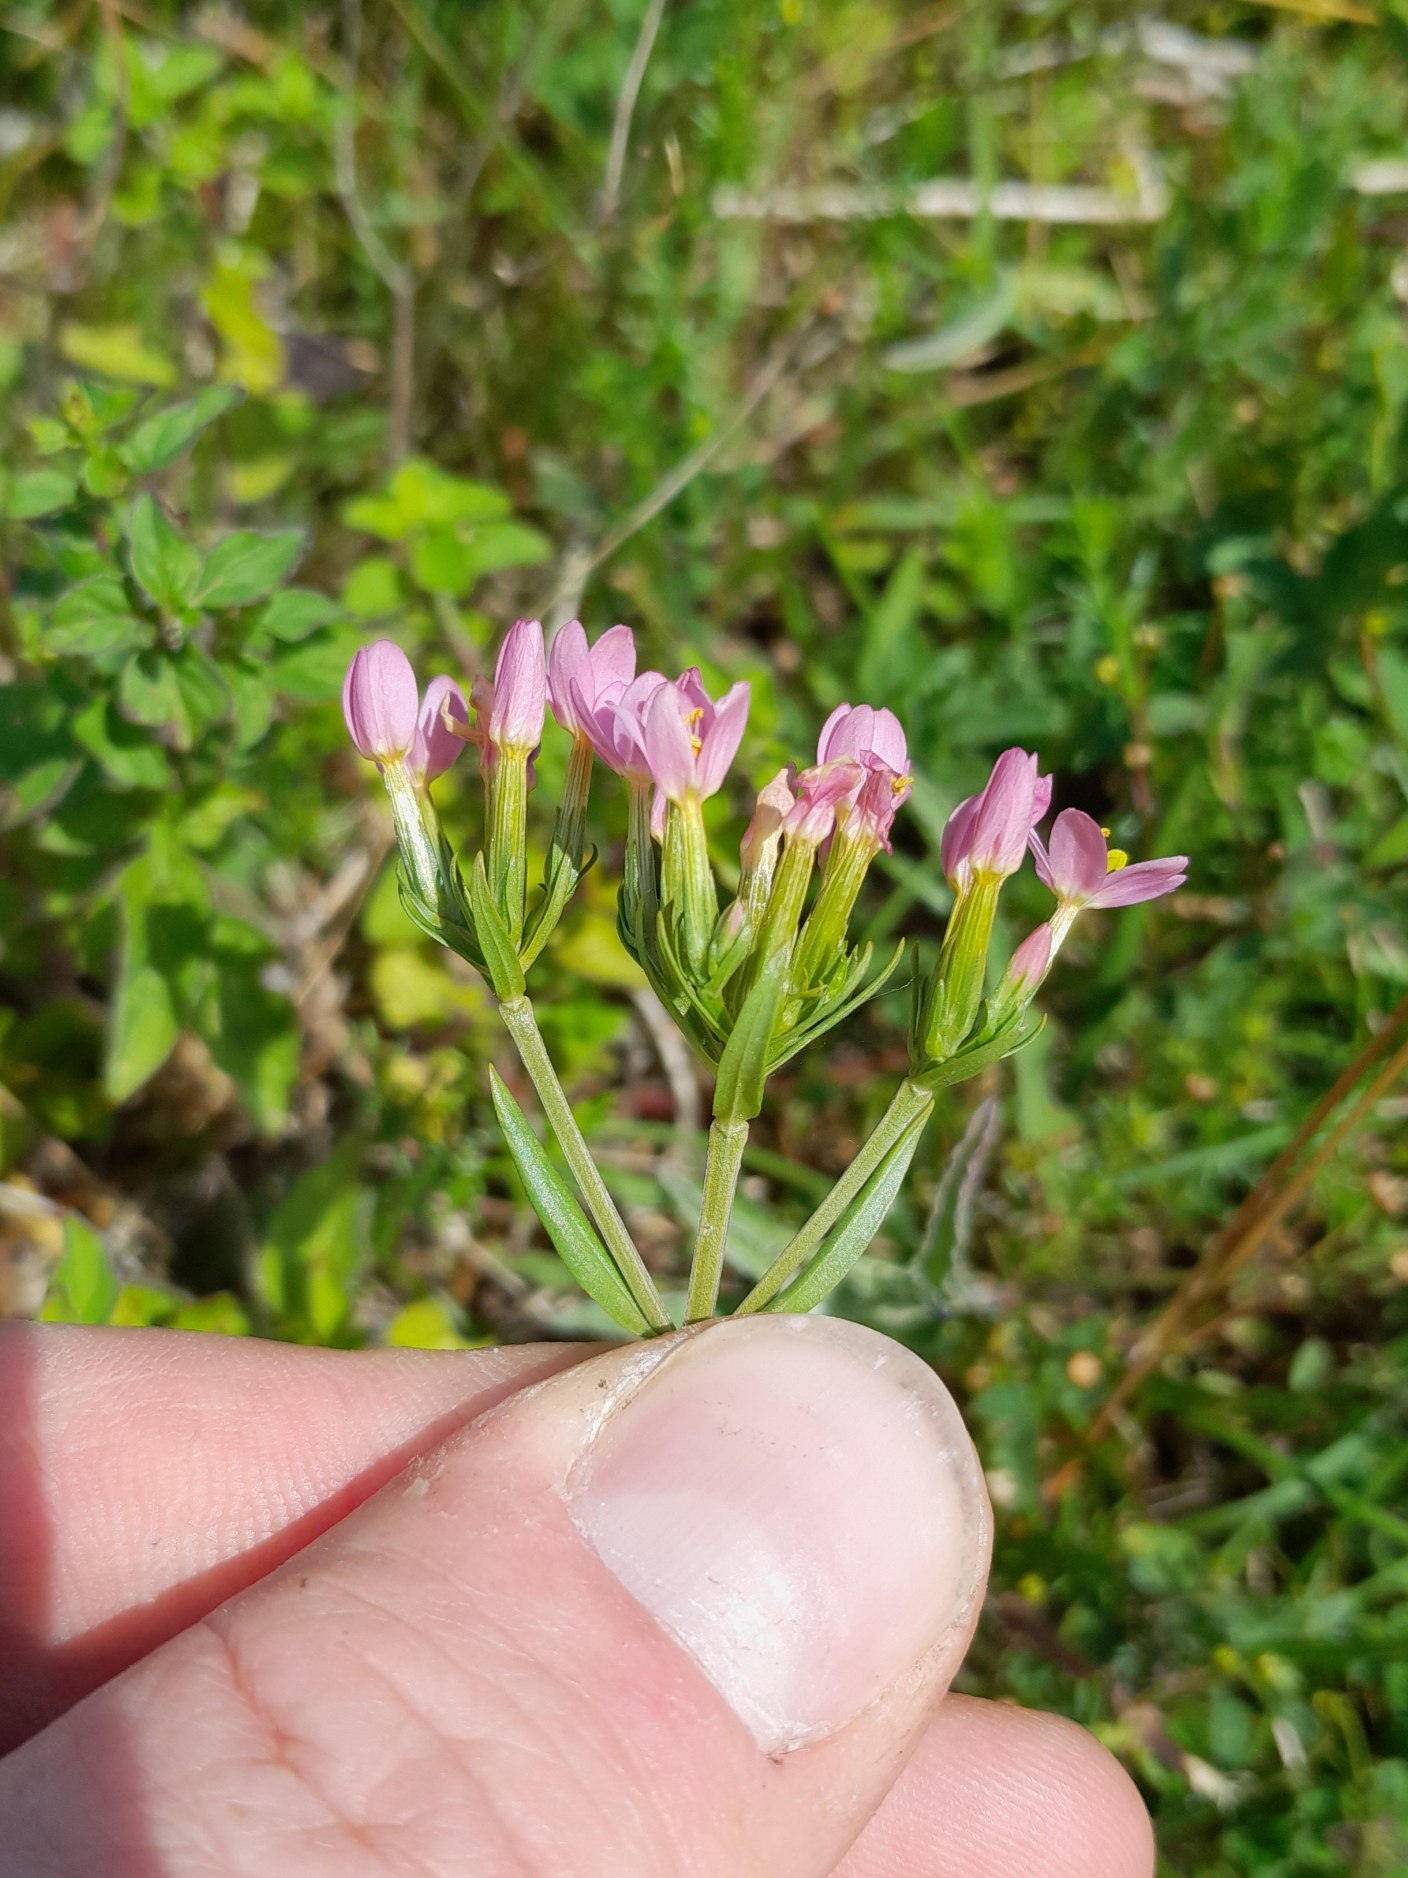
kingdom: Plantae
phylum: Tracheophyta
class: Magnoliopsida
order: Gentianales
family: Gentianaceae
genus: Centaurium
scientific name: Centaurium erythraea
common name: Mark-tusindgylden
